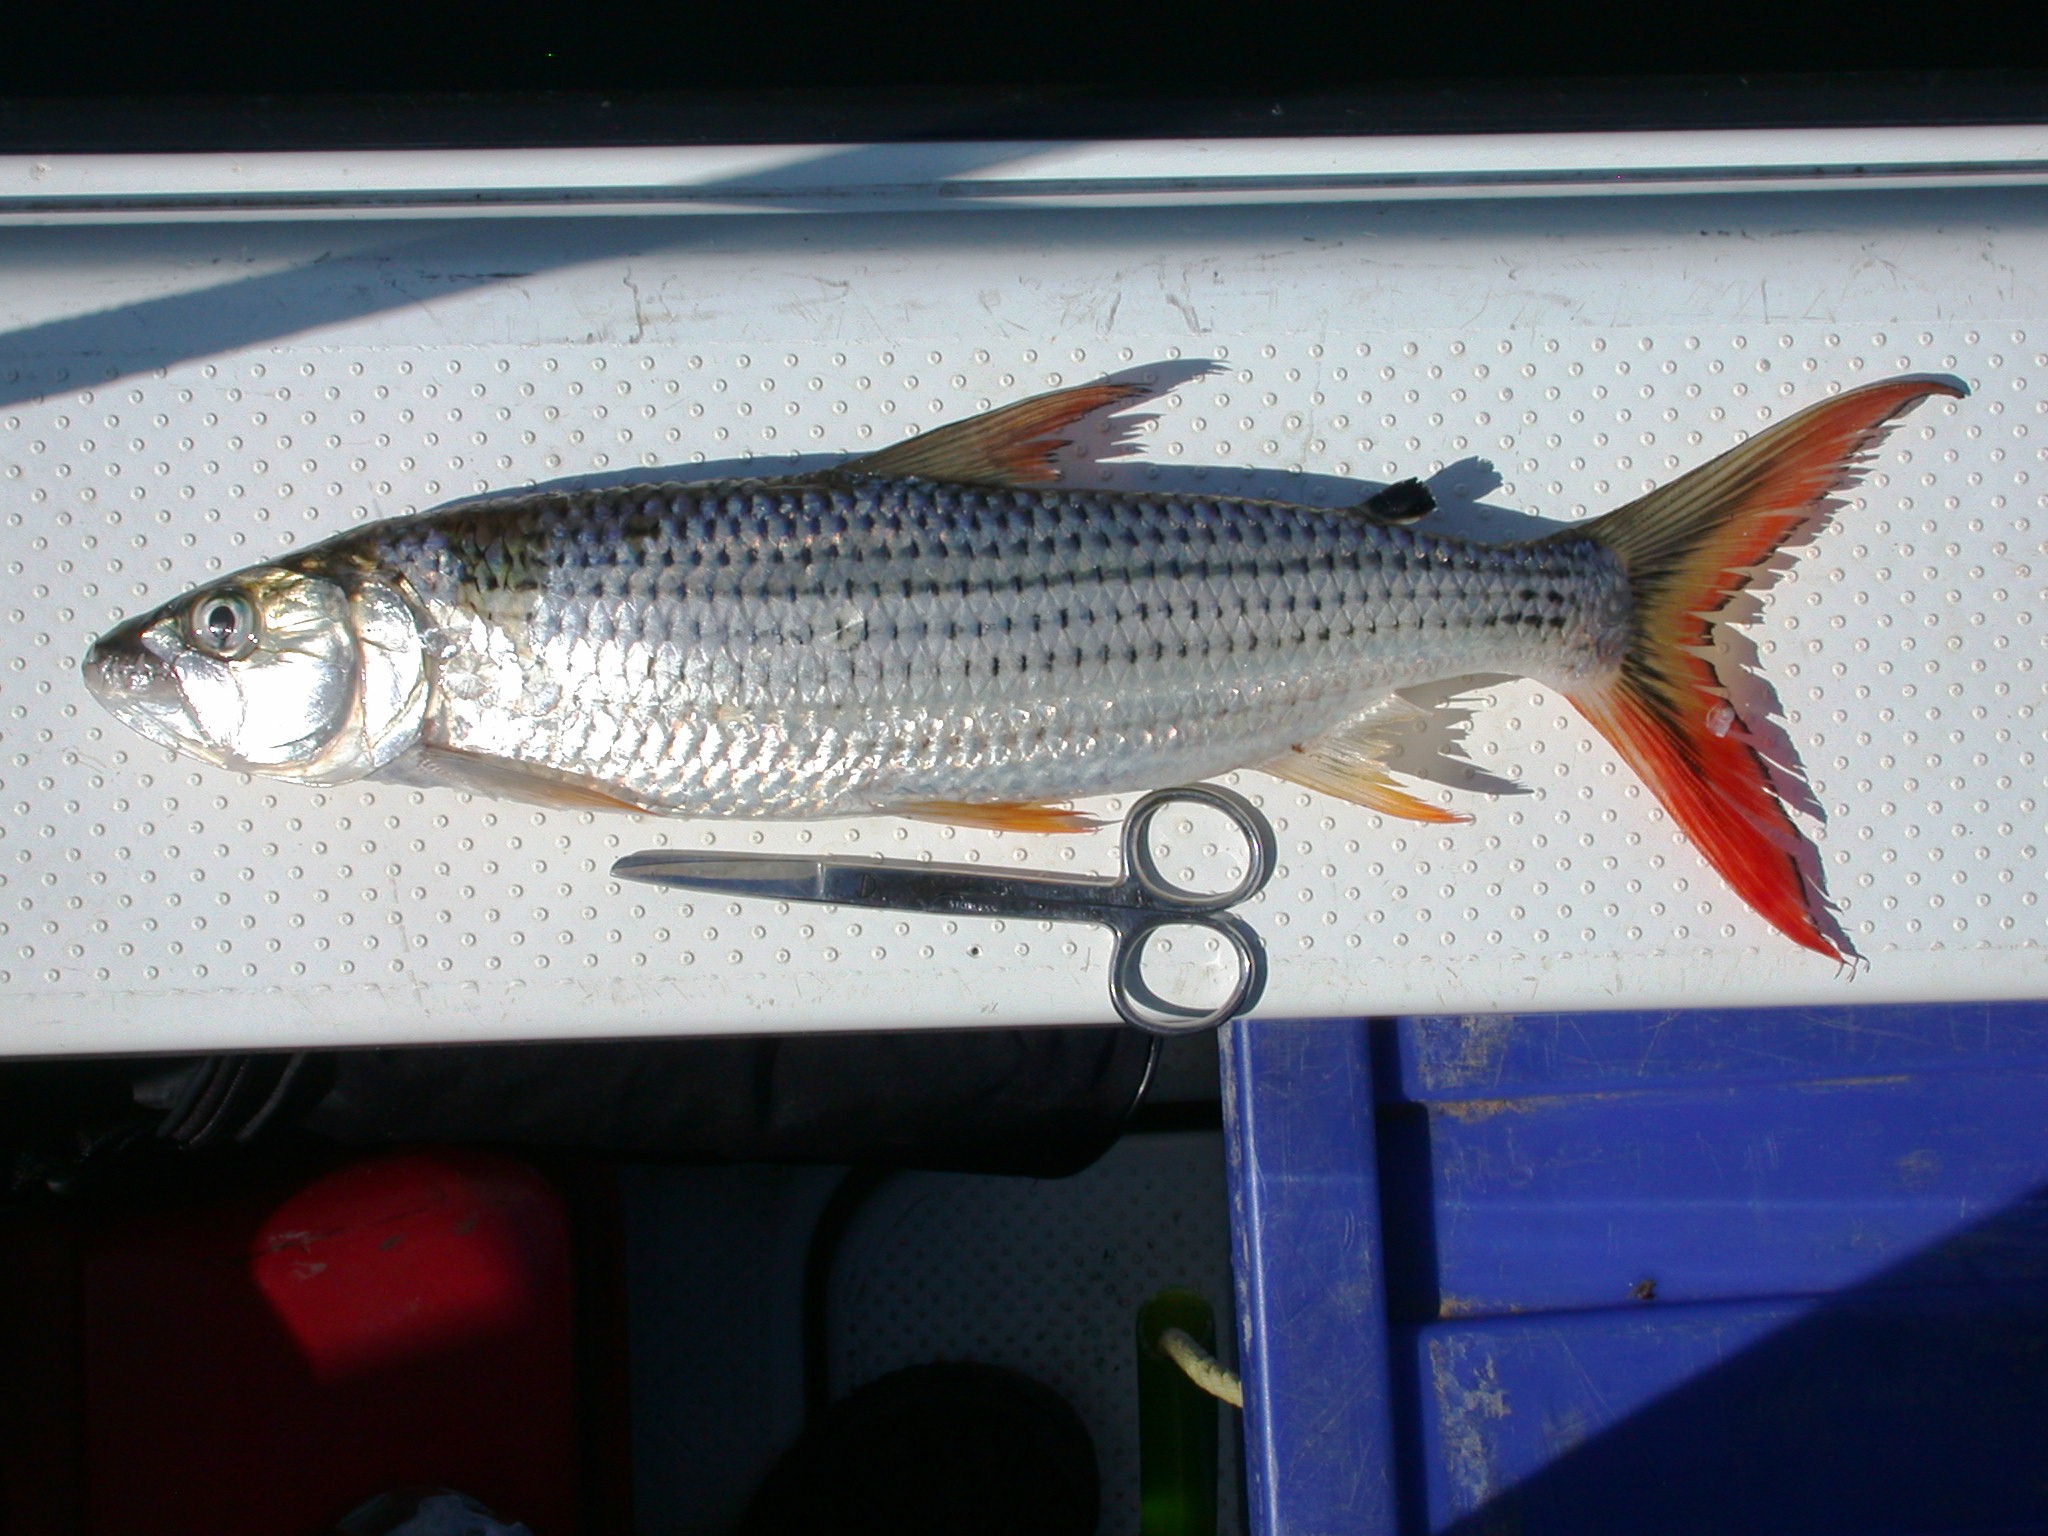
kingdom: Animalia
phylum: Chordata
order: Characiformes
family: Alestidae
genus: Hydrocynus
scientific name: Hydrocynus vittatus
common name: Tigerfish
